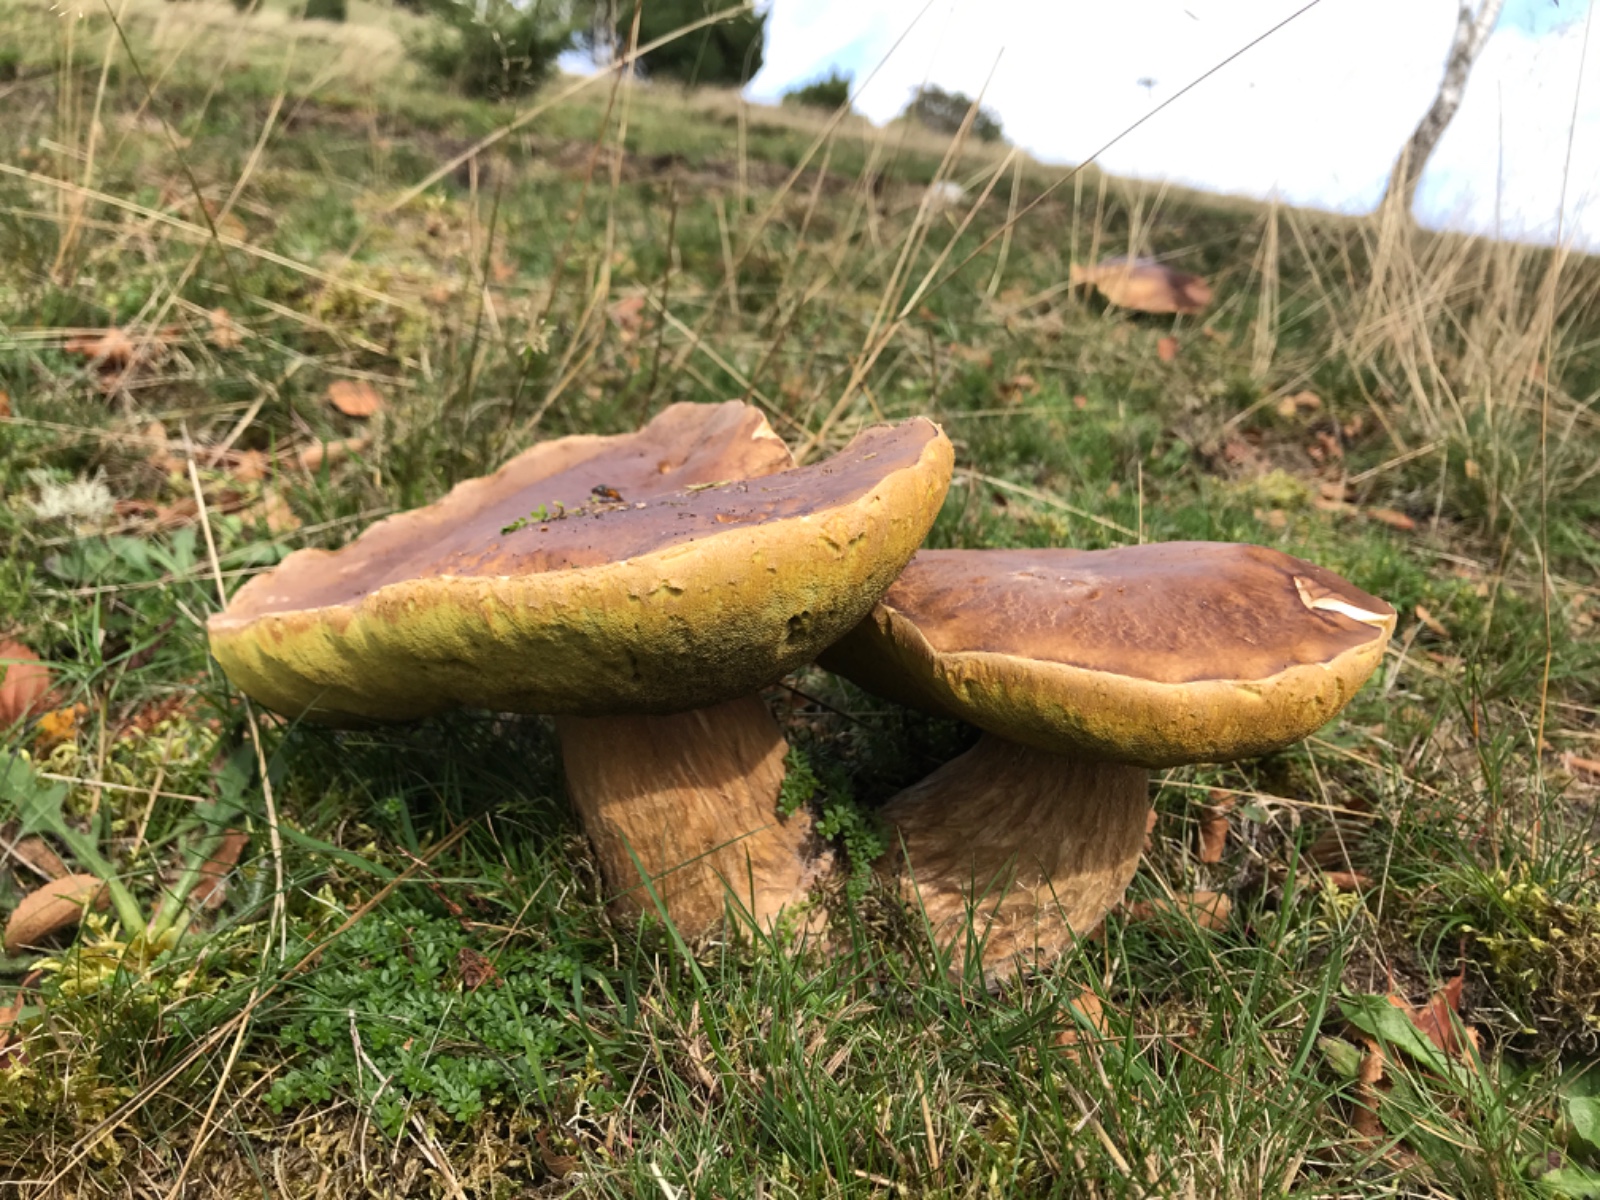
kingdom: Fungi
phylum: Basidiomycota
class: Agaricomycetes
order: Boletales
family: Boletaceae
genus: Boletus
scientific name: Boletus edulis
